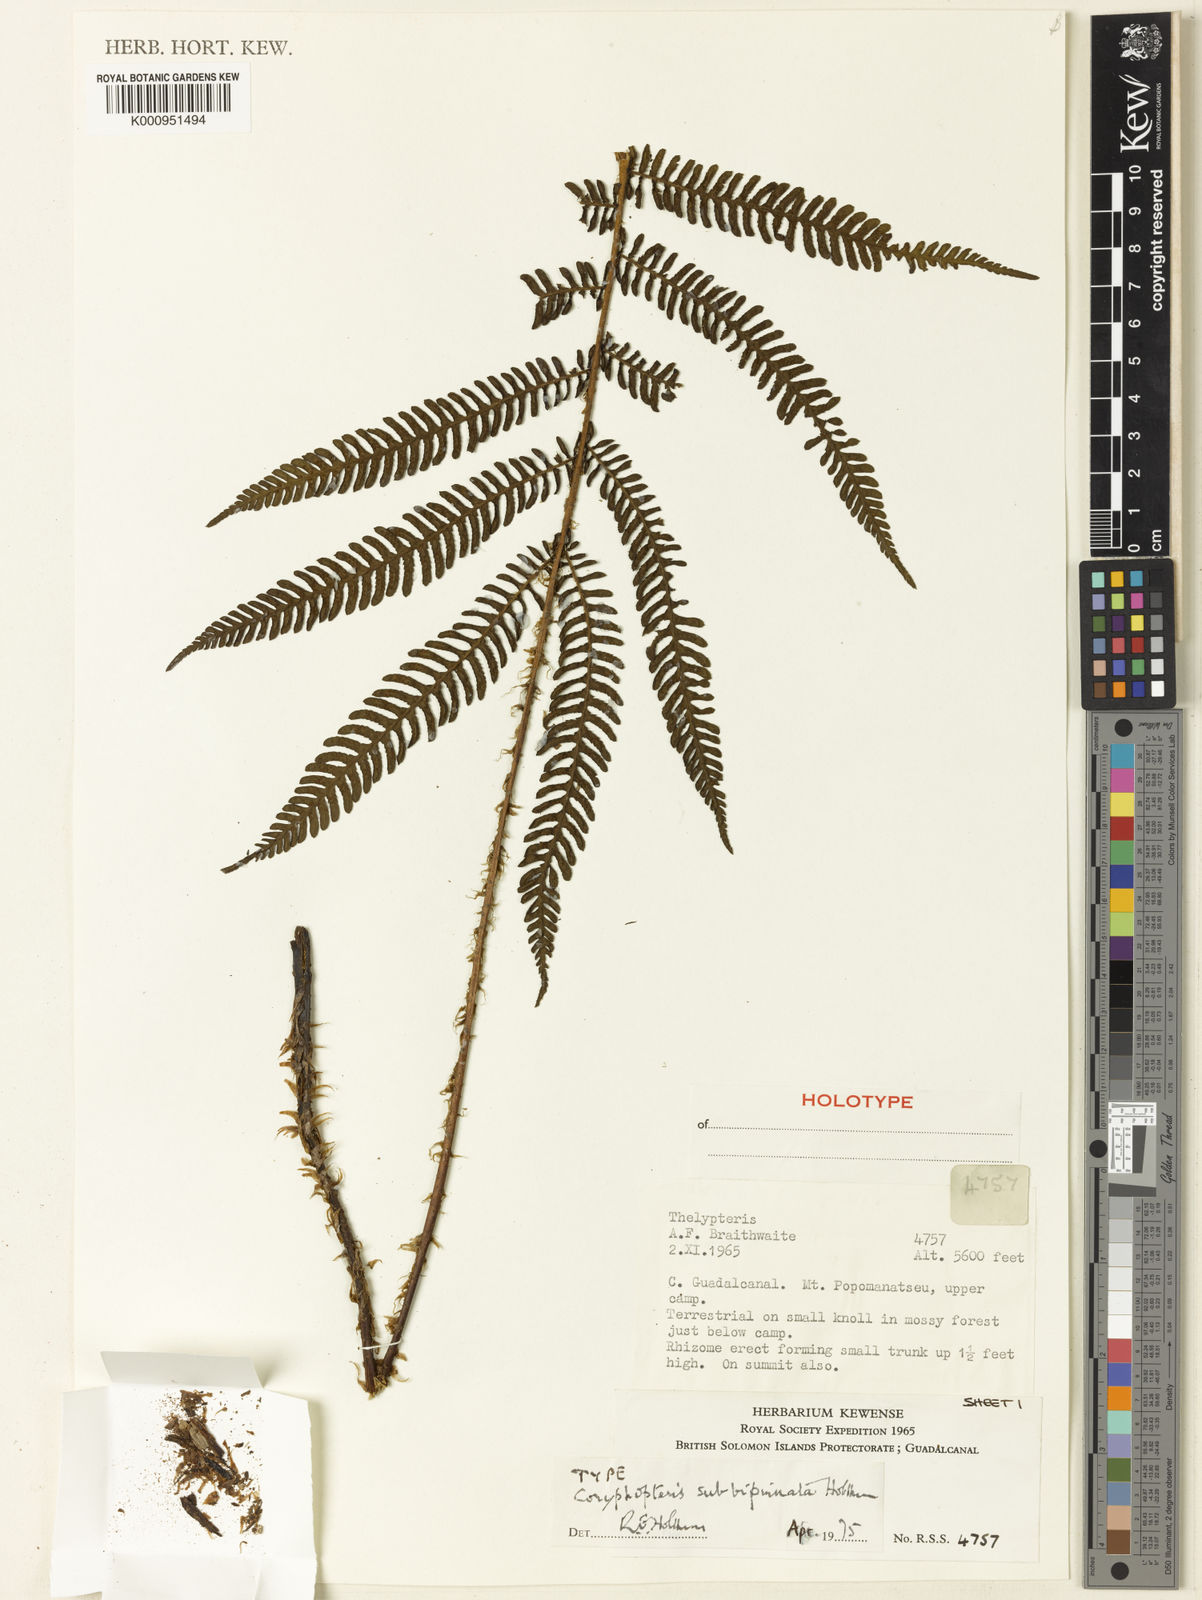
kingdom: Plantae
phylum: Tracheophyta
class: Polypodiopsida
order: Polypodiales
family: Thelypteridaceae
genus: Coryphopteris
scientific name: Coryphopteris subbipinnata
